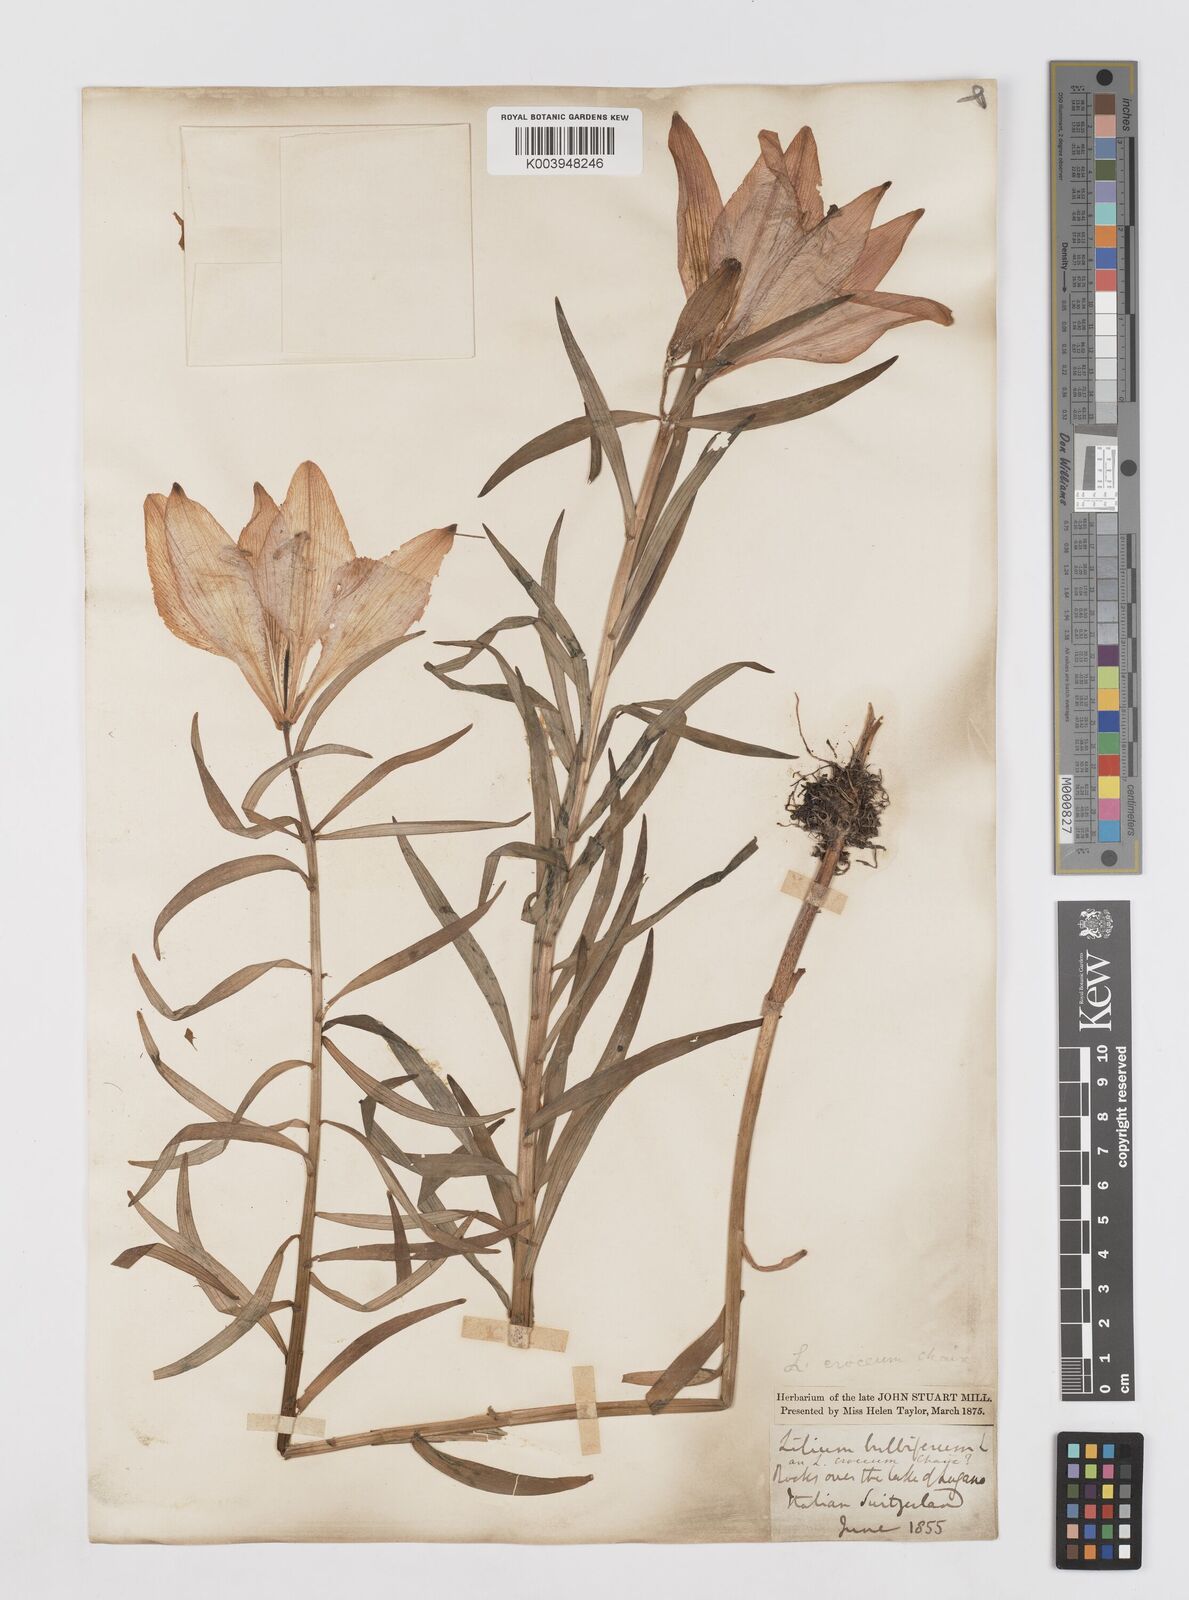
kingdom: Plantae
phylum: Tracheophyta
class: Liliopsida
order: Liliales
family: Liliaceae
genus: Lilium
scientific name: Lilium bulbiferum
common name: Orange lily
